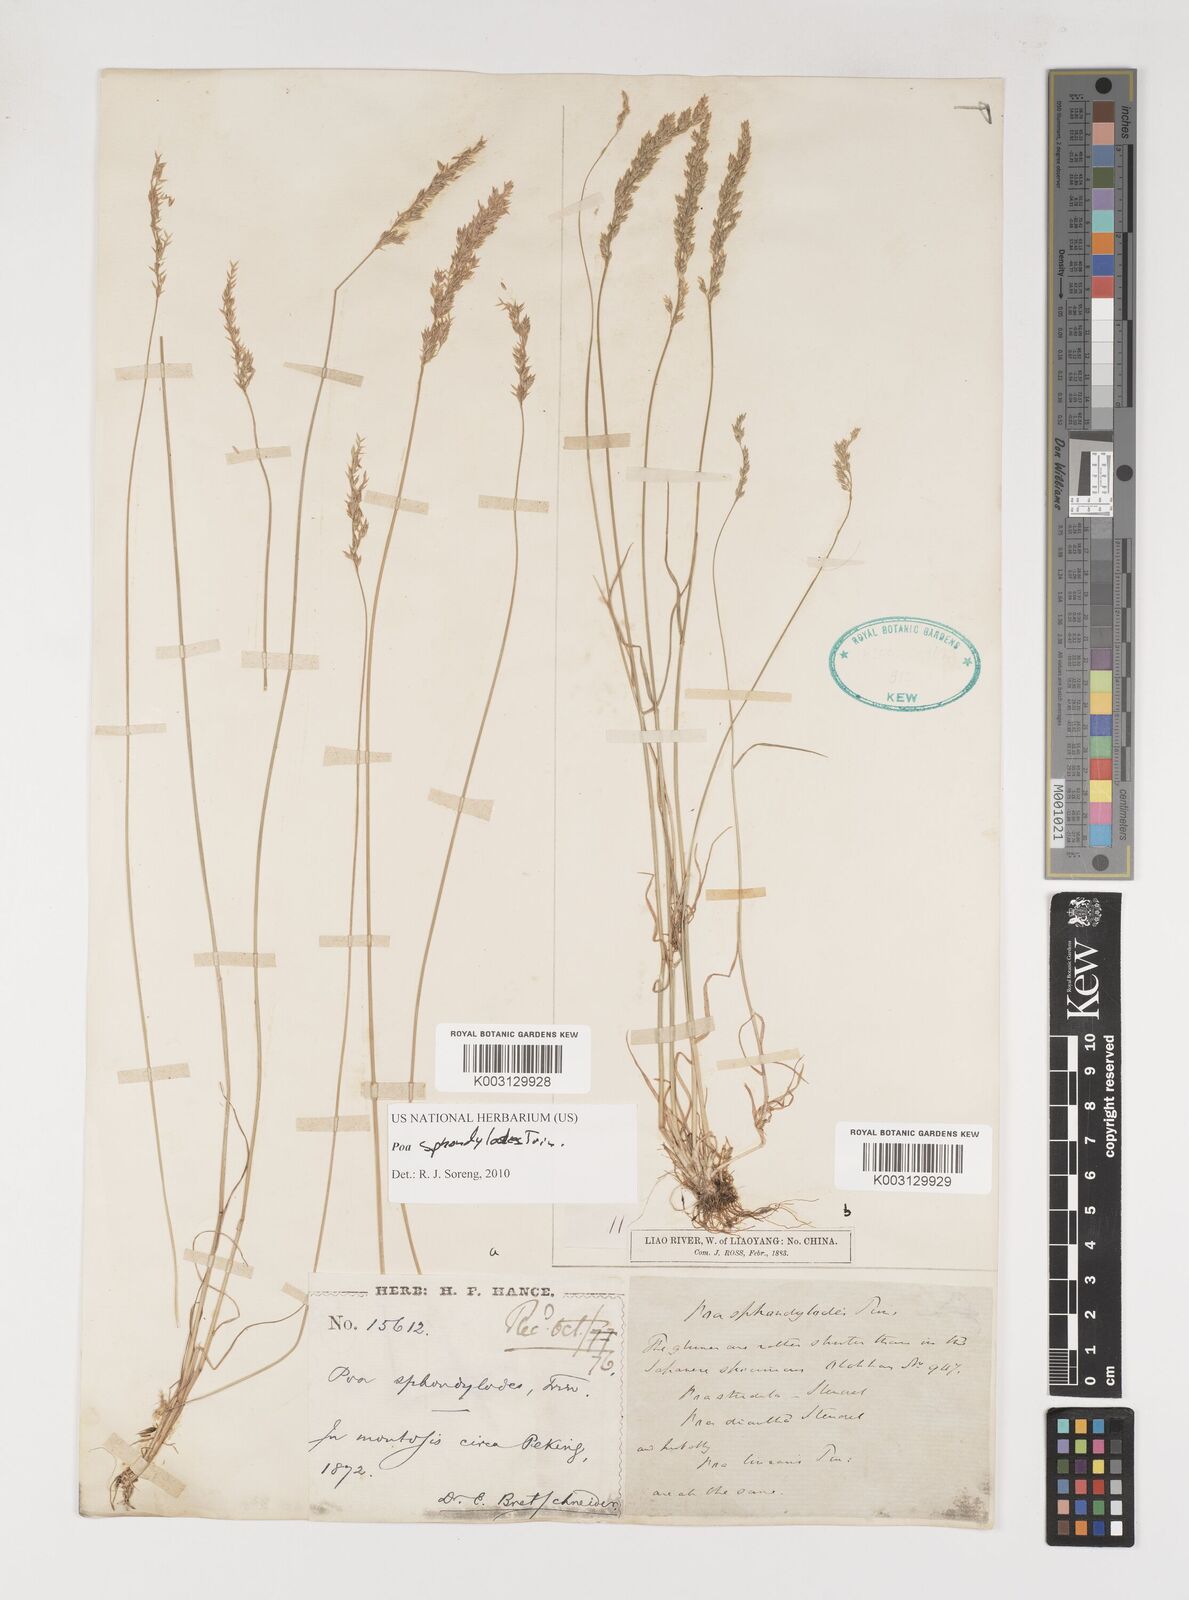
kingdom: Plantae
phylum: Tracheophyta
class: Liliopsida
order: Poales
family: Poaceae
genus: Poa
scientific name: Poa sphondylodes
